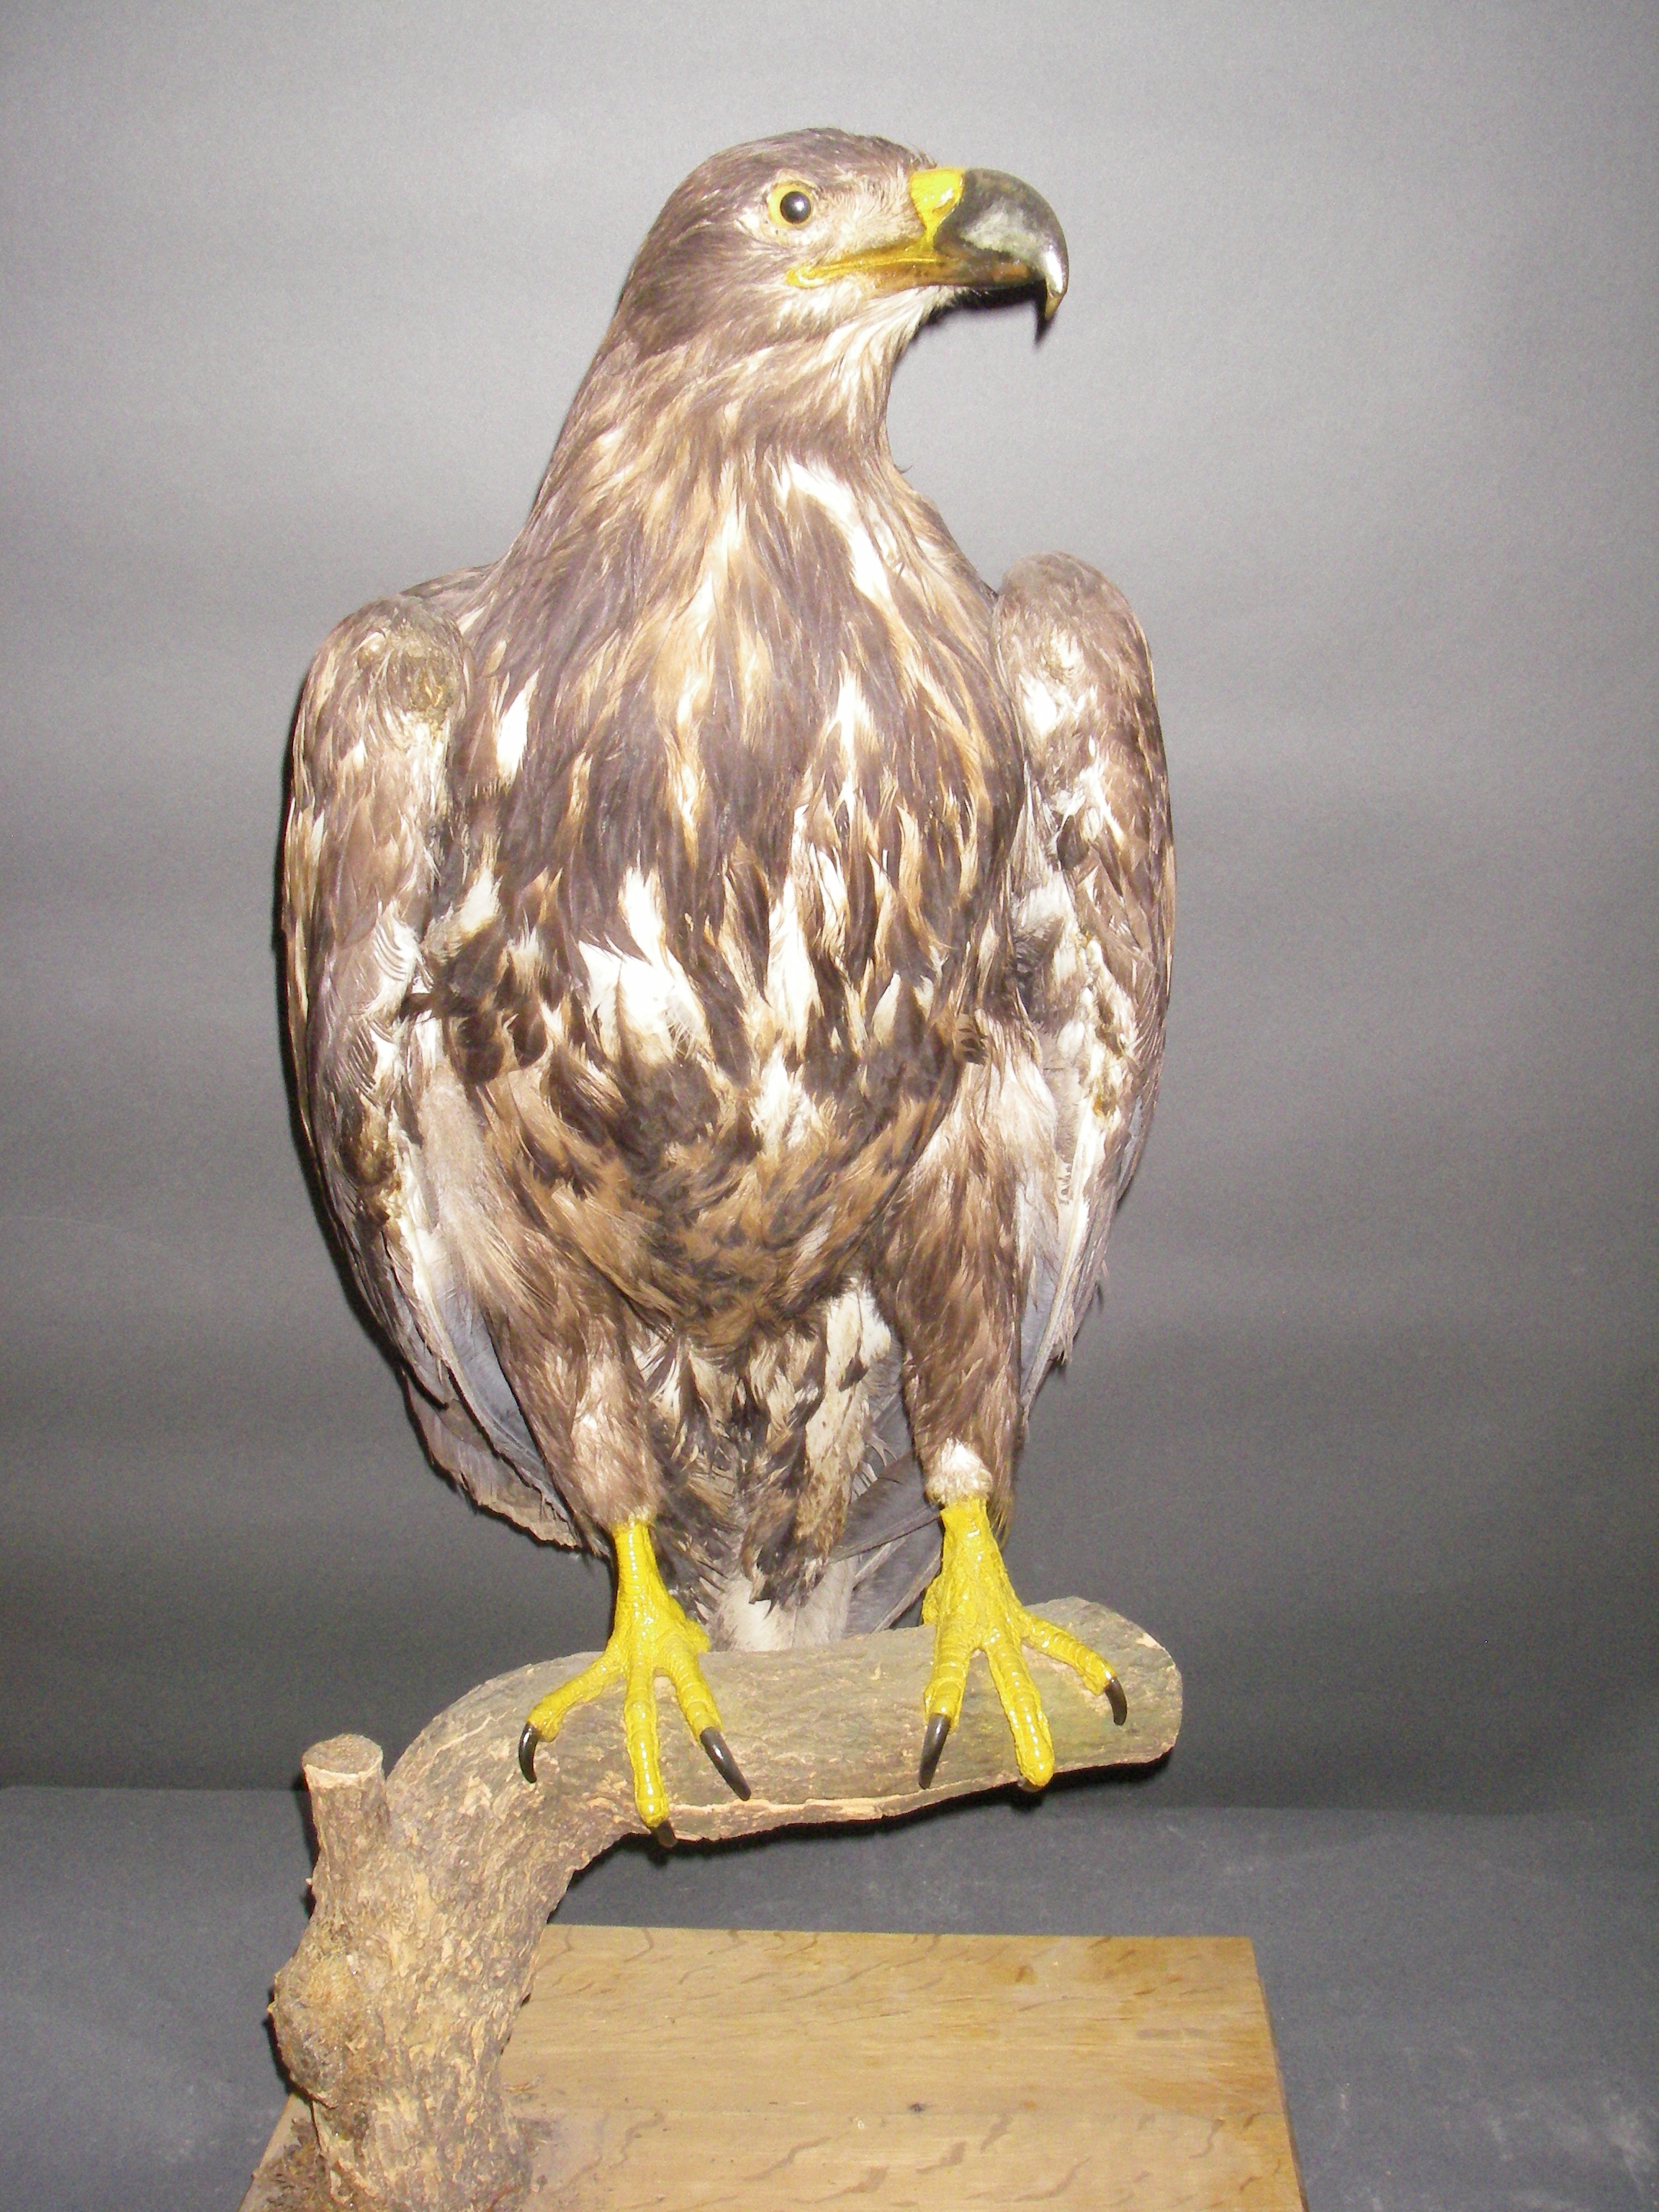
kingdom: Animalia
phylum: Chordata
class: Aves
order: Accipitriformes
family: Accipitridae
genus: Haliaeetus
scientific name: Haliaeetus albicilla
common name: White-tailed eagle
